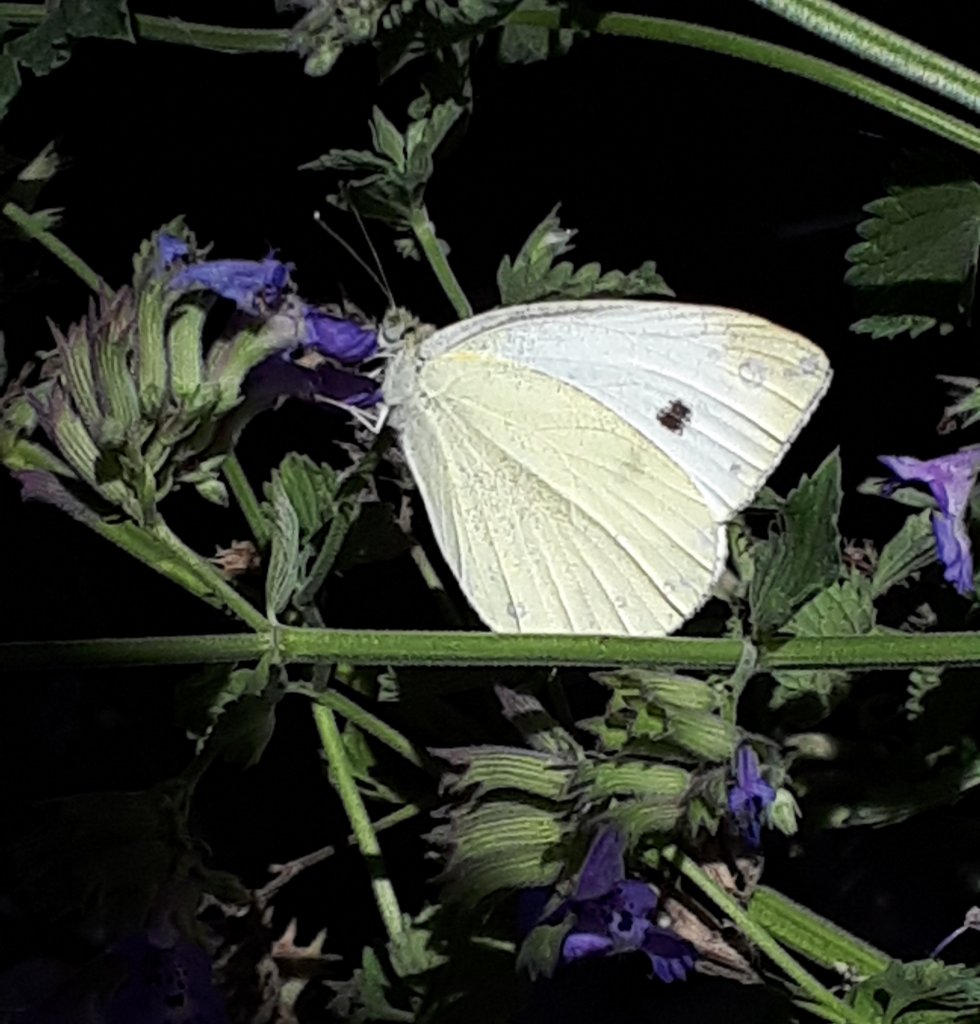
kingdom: Animalia
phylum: Arthropoda
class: Insecta
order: Lepidoptera
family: Pieridae
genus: Pieris
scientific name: Pieris rapae
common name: Cabbage White
